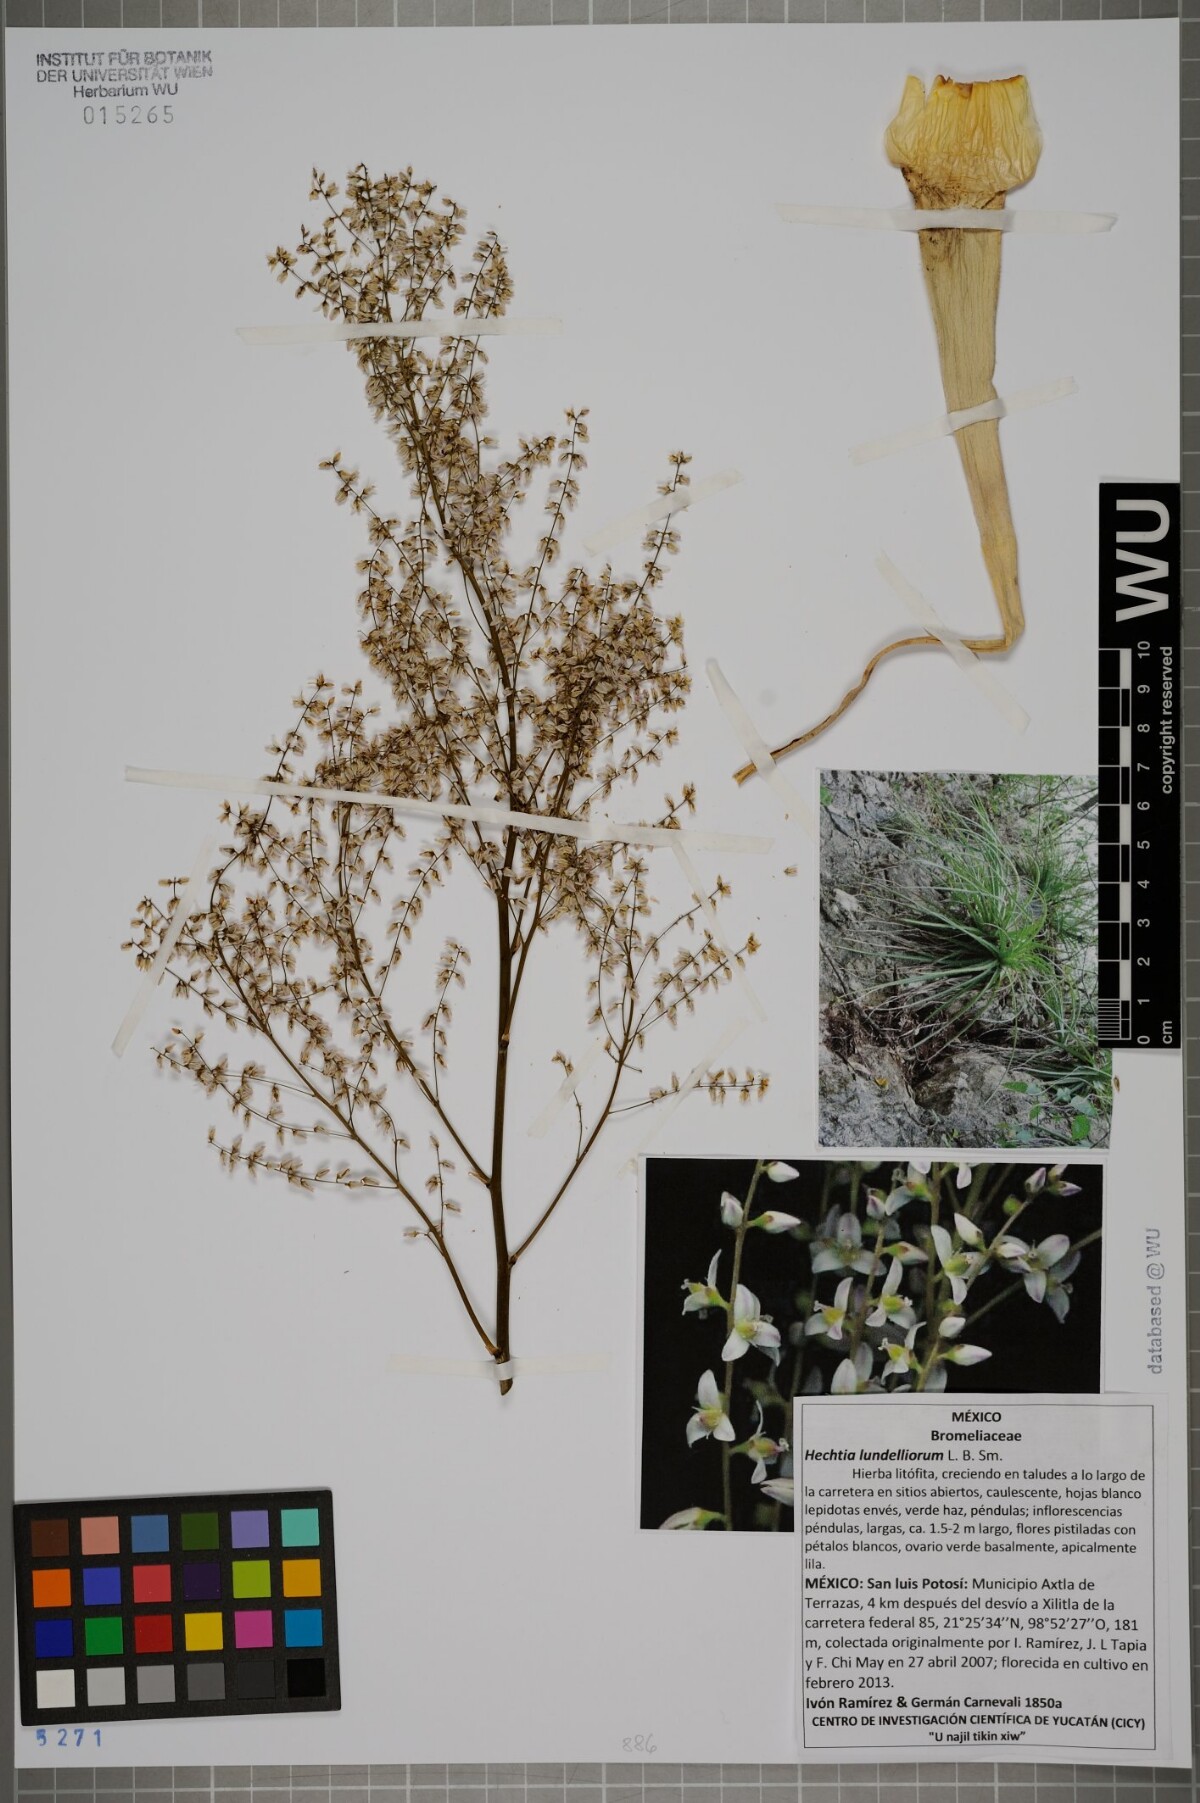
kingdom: Plantae
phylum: Tracheophyta
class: Liliopsida
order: Poales
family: Bromeliaceae
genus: Hechtia
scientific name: Hechtia lundelliorum
